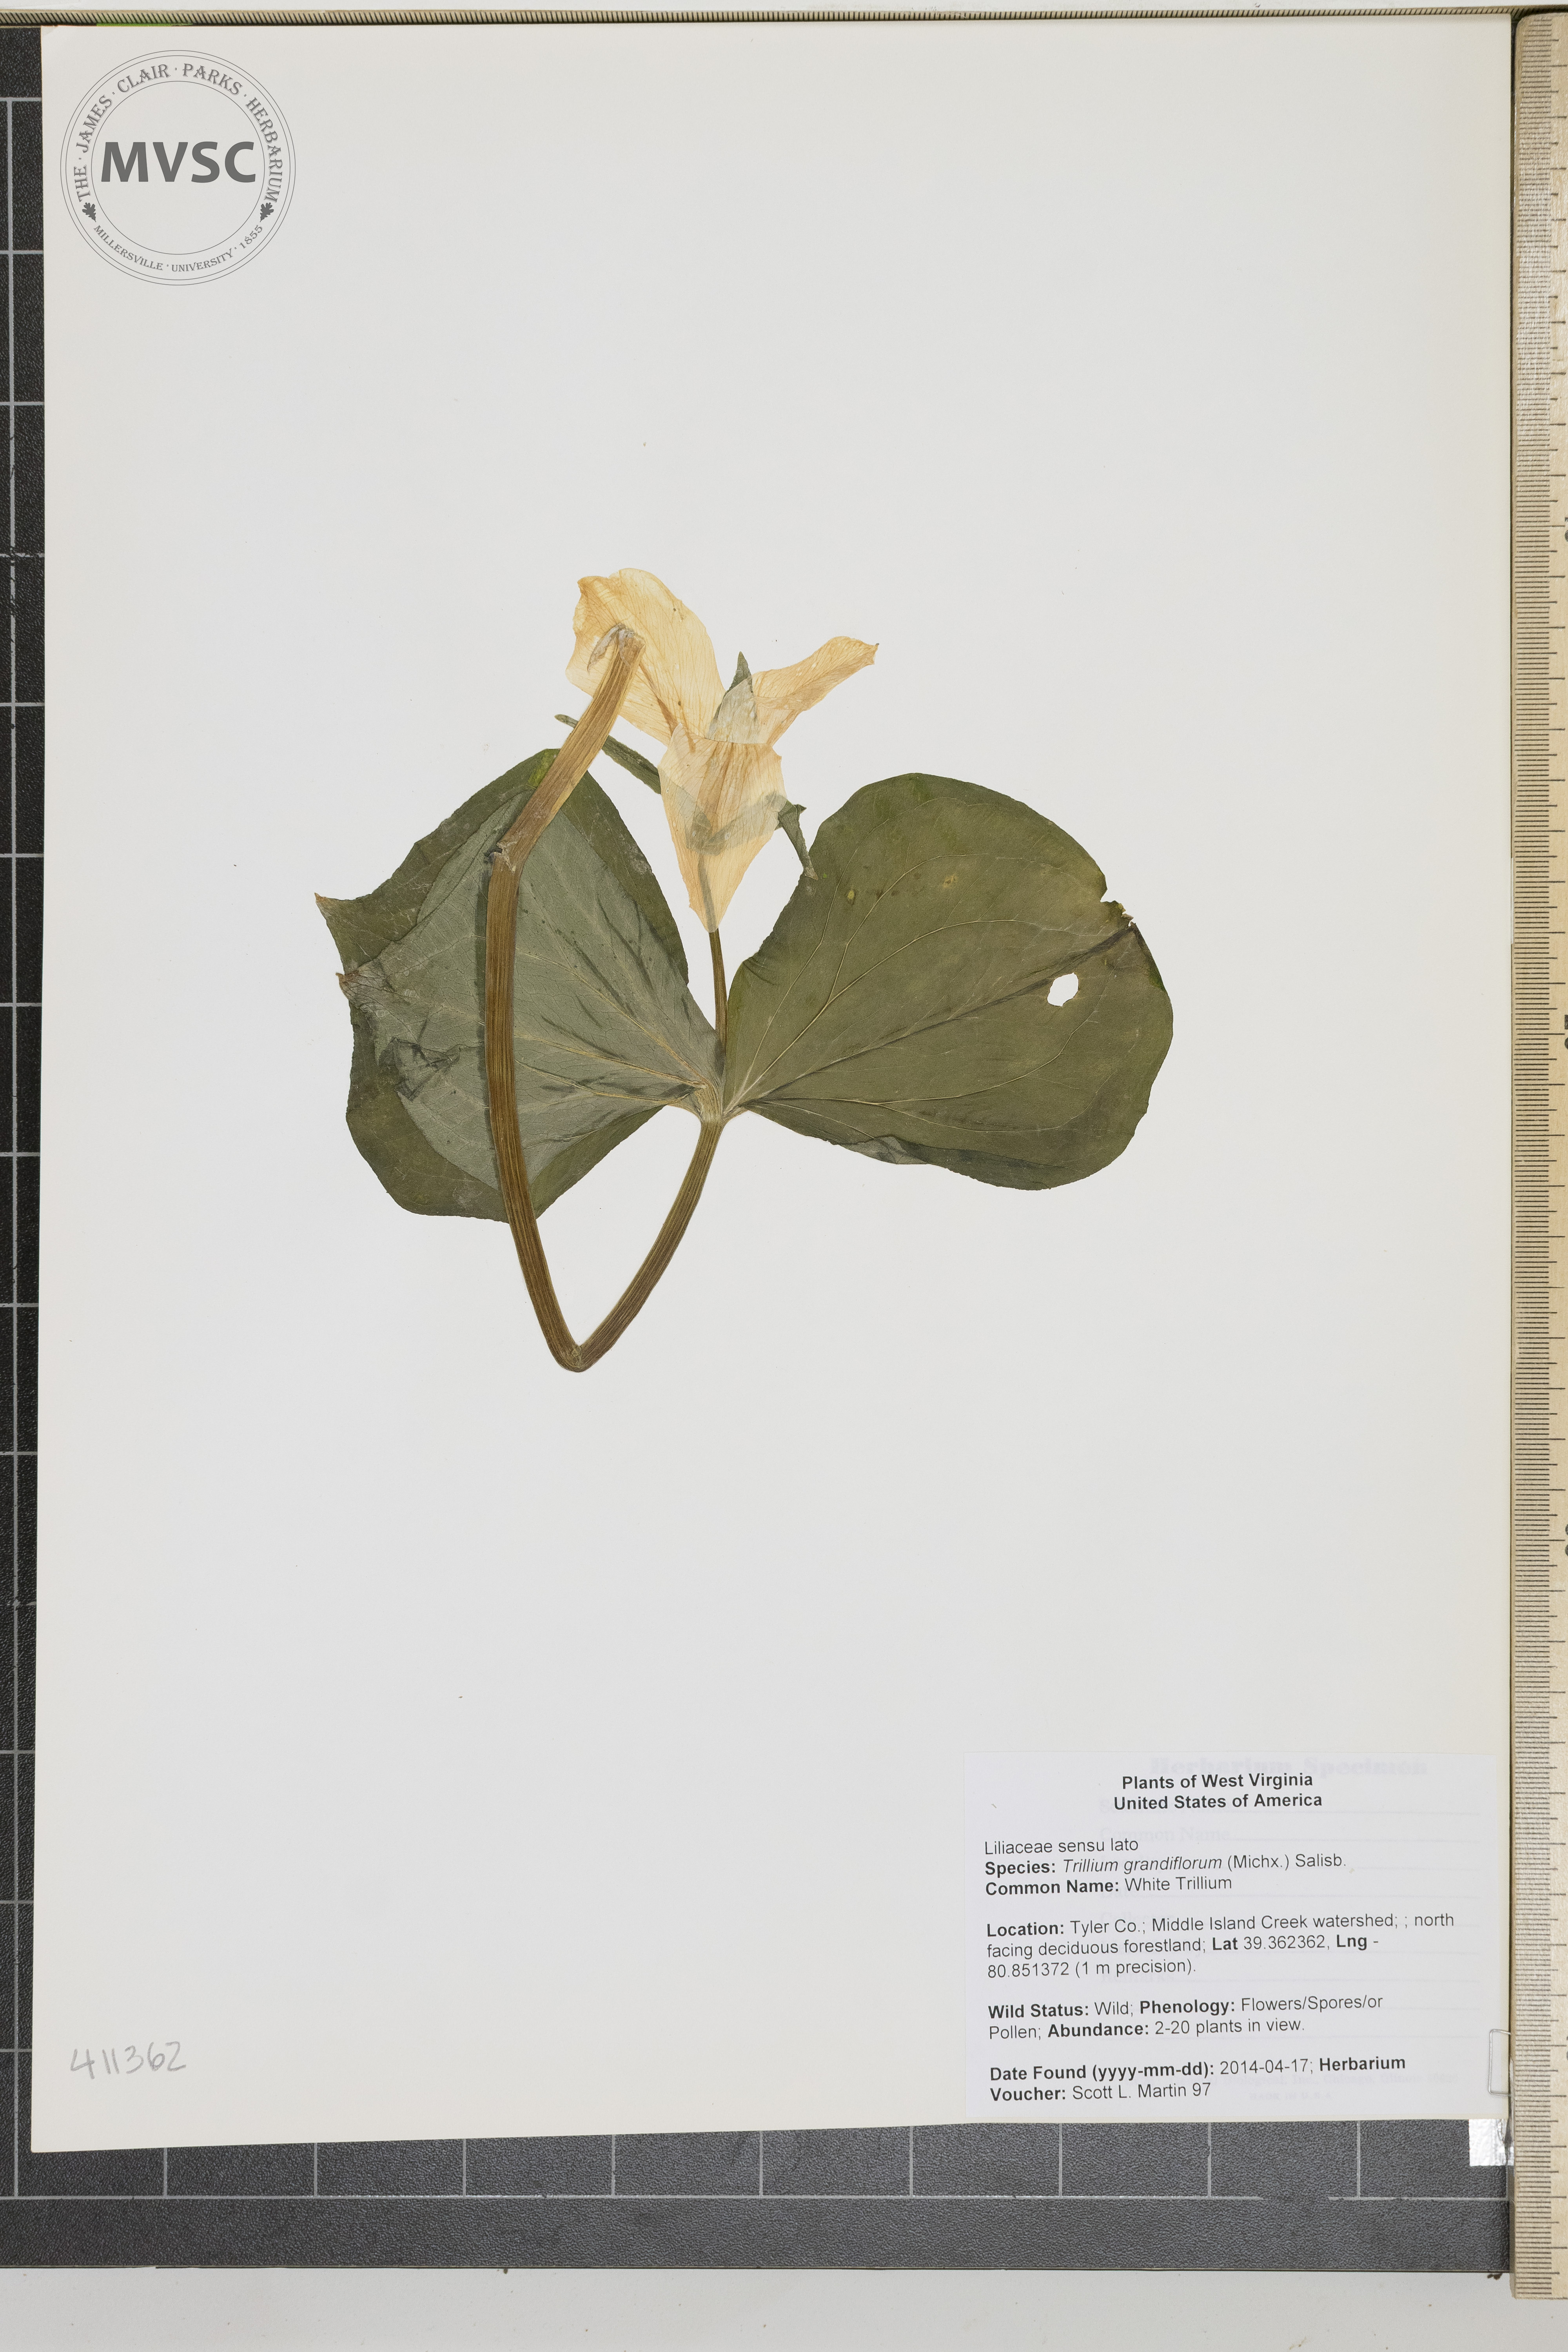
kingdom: Plantae
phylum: Tracheophyta
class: Liliopsida
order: Liliales
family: Melanthiaceae
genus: Trillium
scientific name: Trillium grandiflorum
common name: White Trillium
